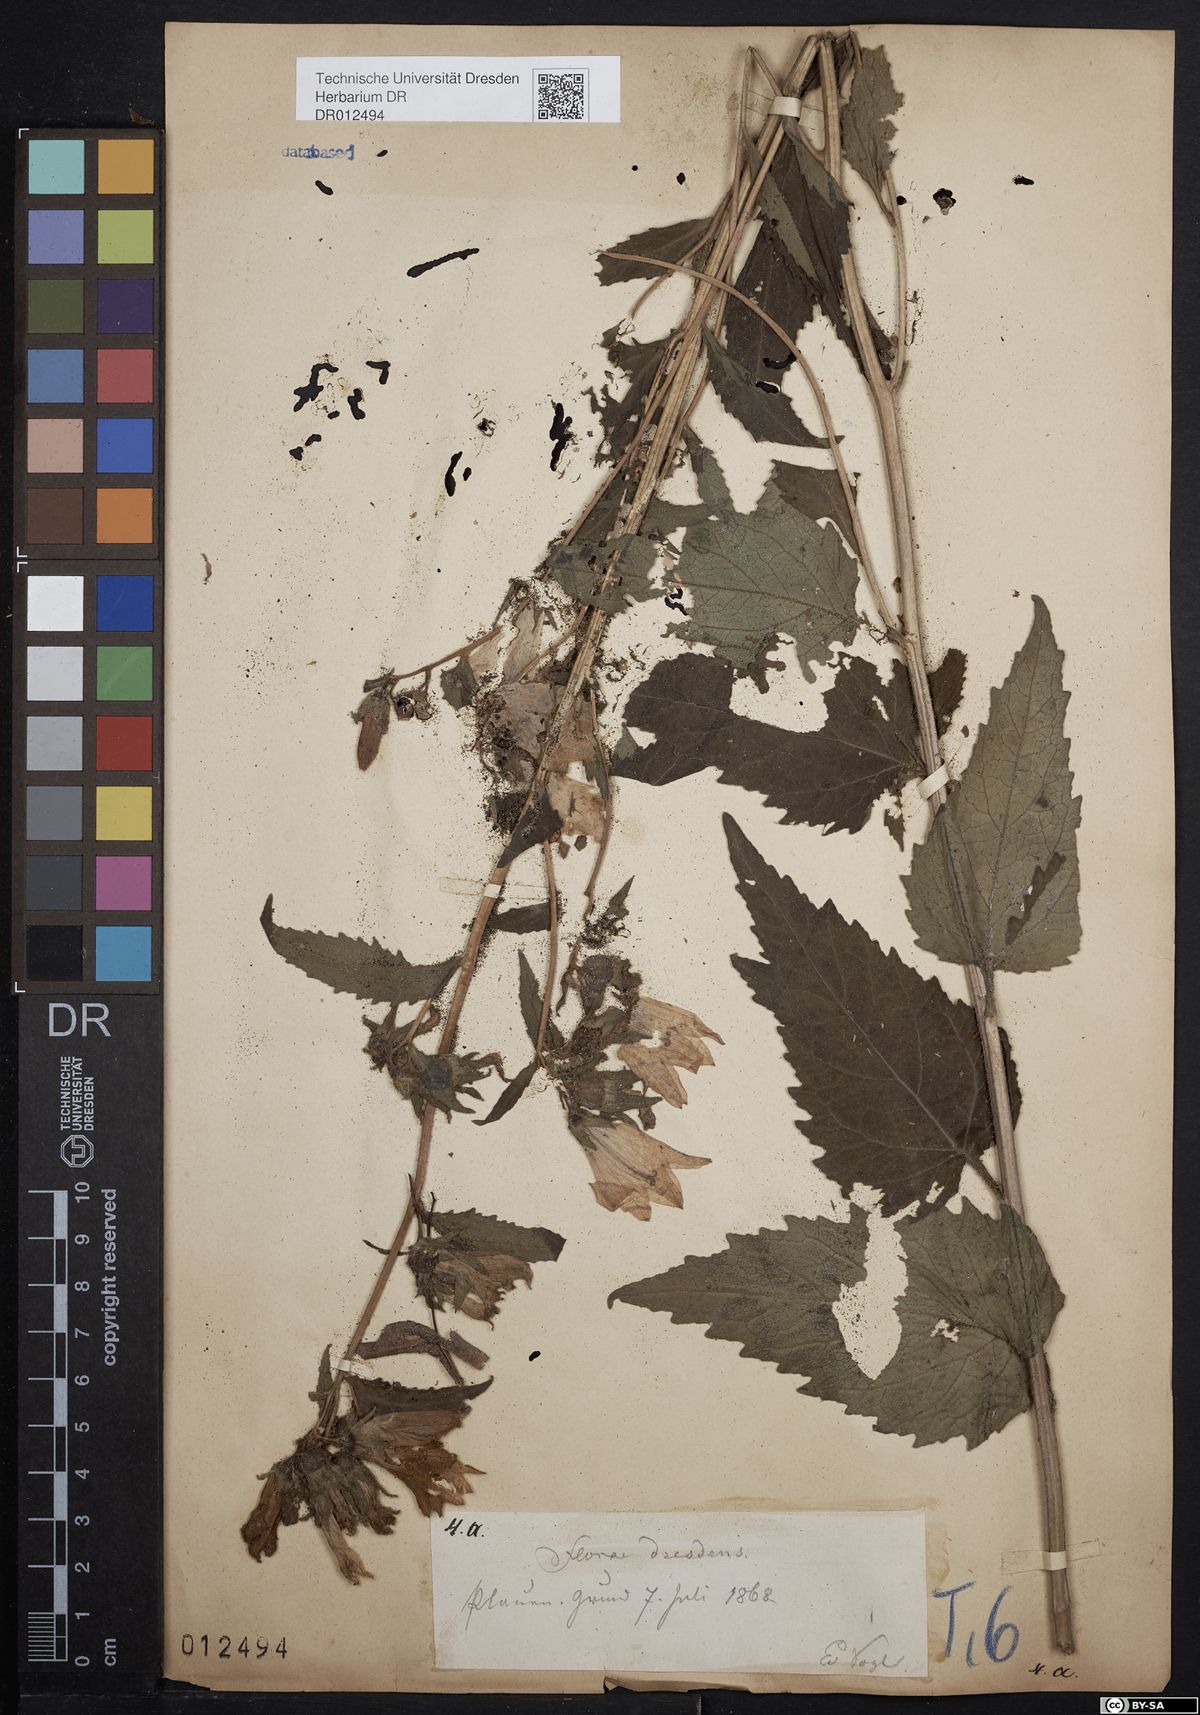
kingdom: Plantae
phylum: Tracheophyta
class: Magnoliopsida
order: Asterales
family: Campanulaceae
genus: Campanula
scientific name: Campanula trachelium
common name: Nettle-leaved bellflower
